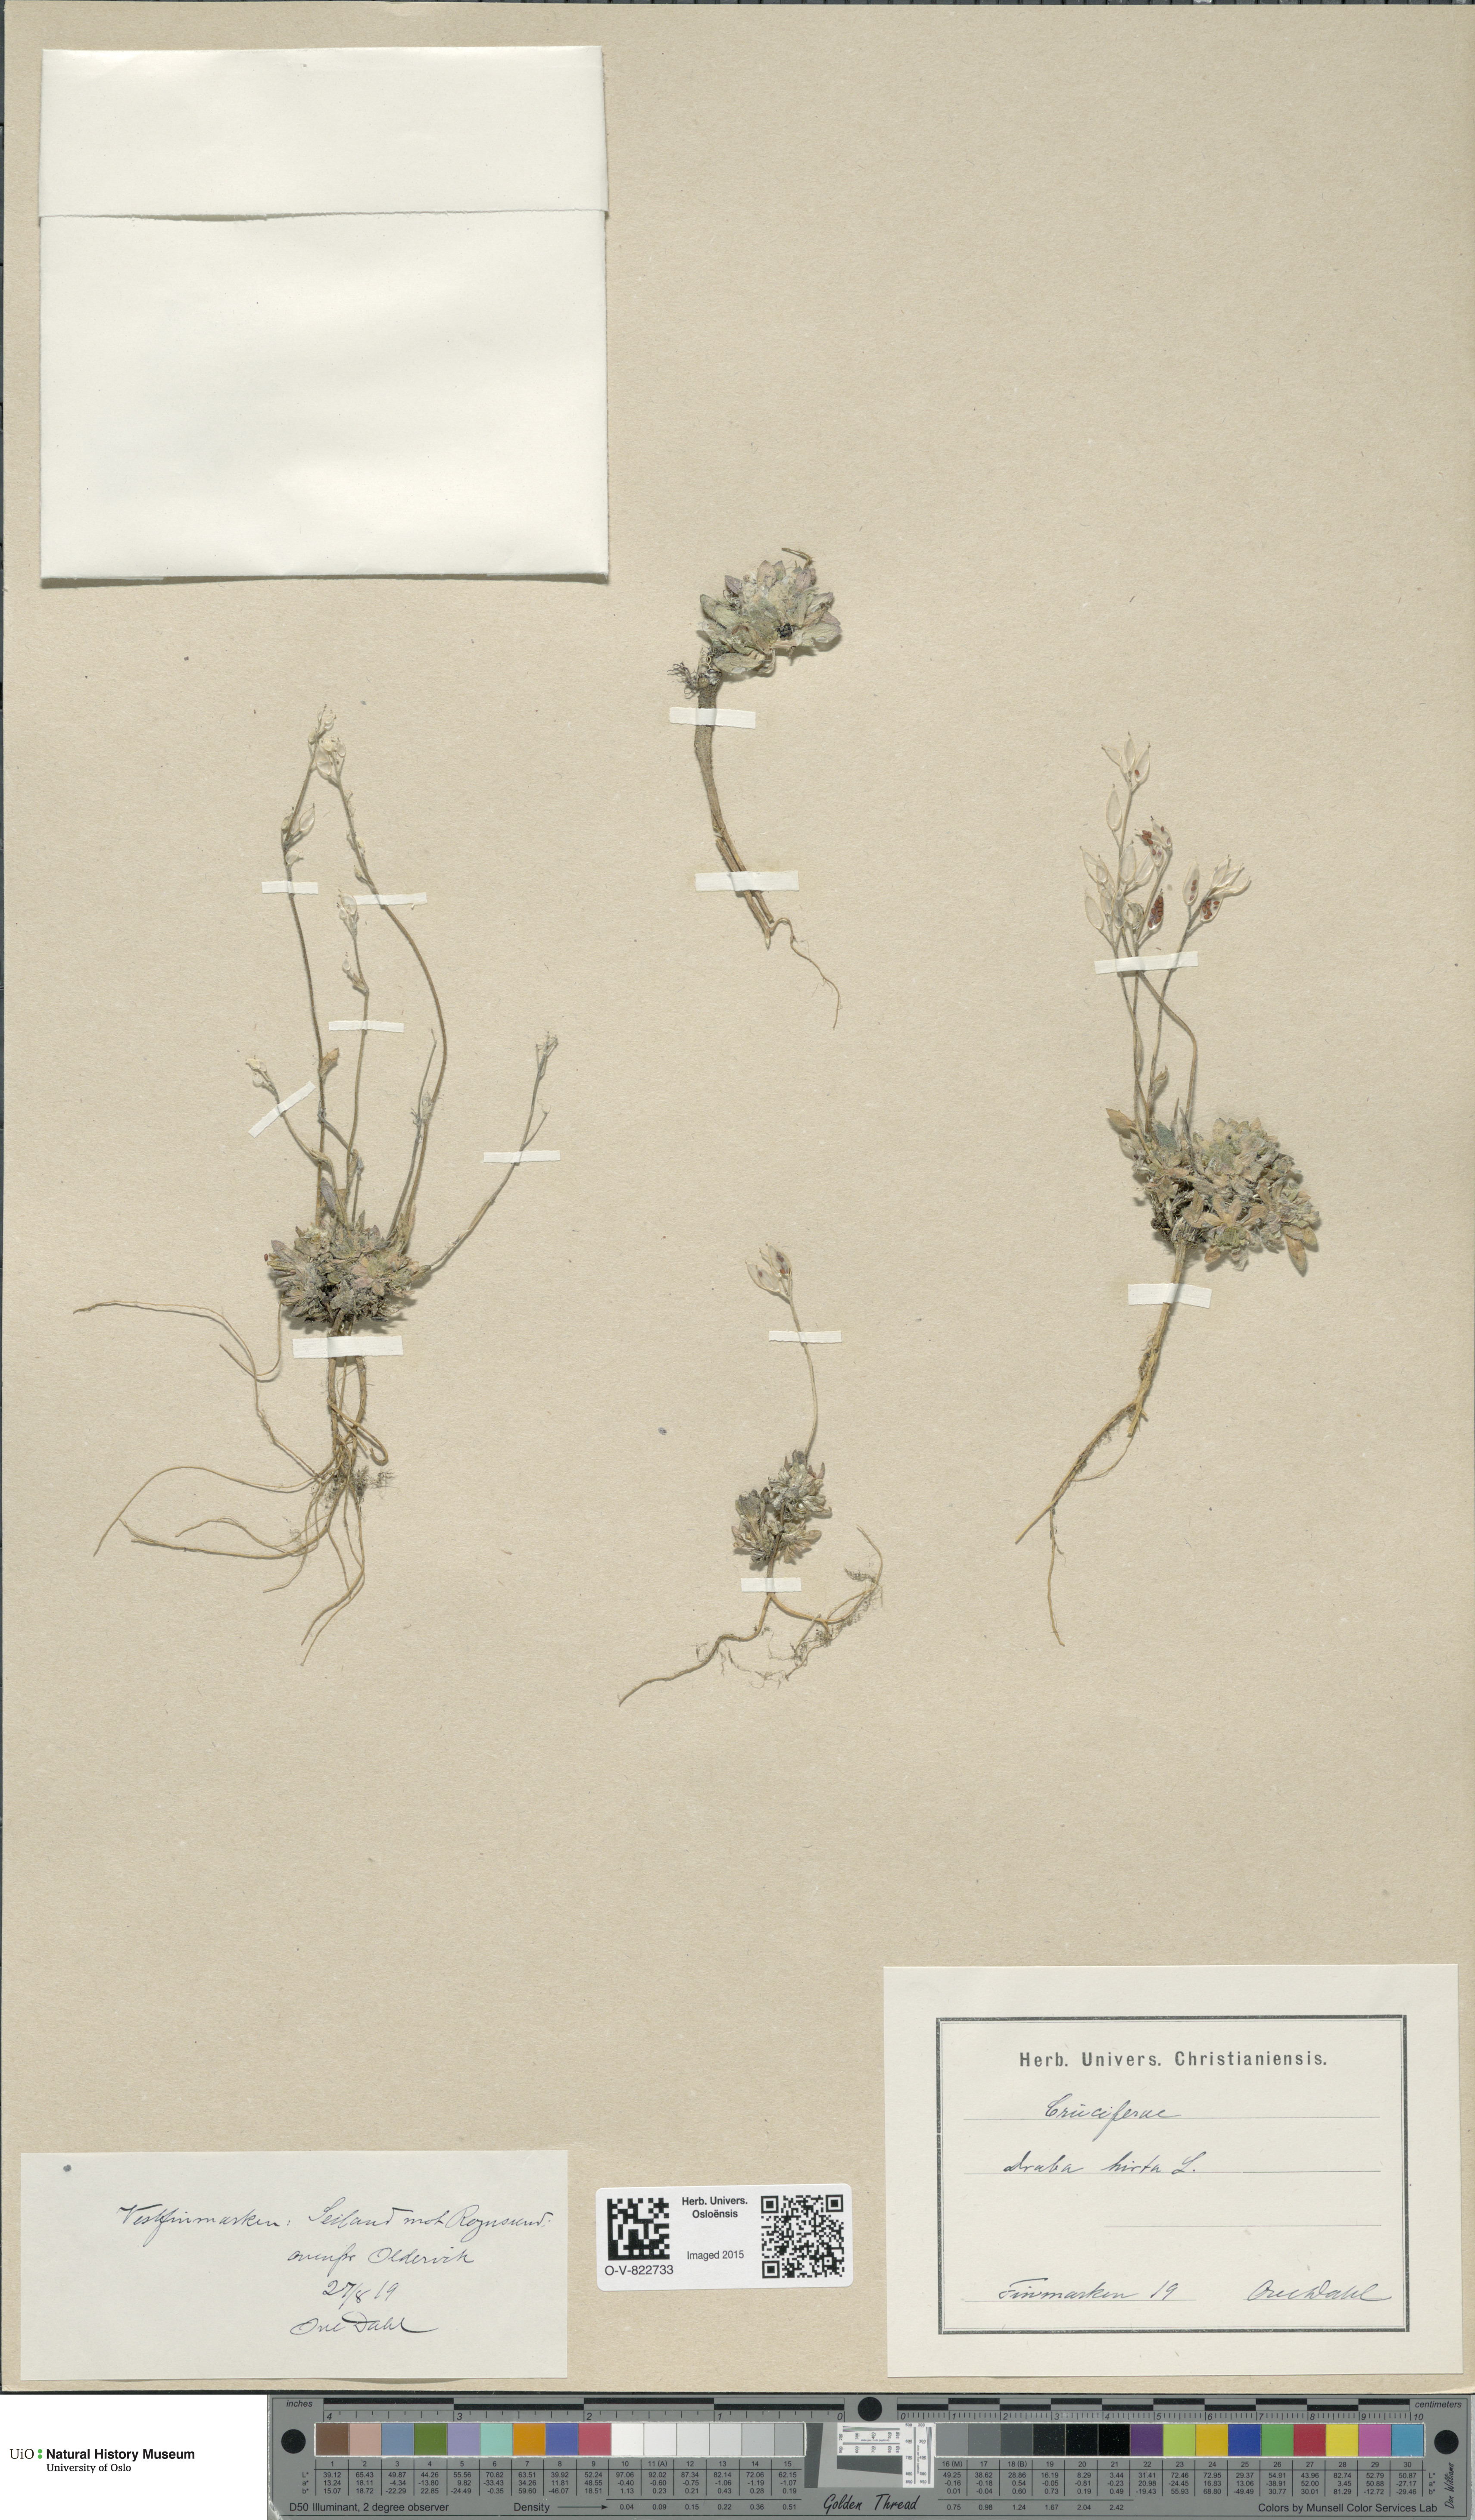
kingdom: Plantae
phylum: Tracheophyta
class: Magnoliopsida
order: Brassicales
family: Brassicaceae
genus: Draba
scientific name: Draba glabella
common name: Glaucous draba
